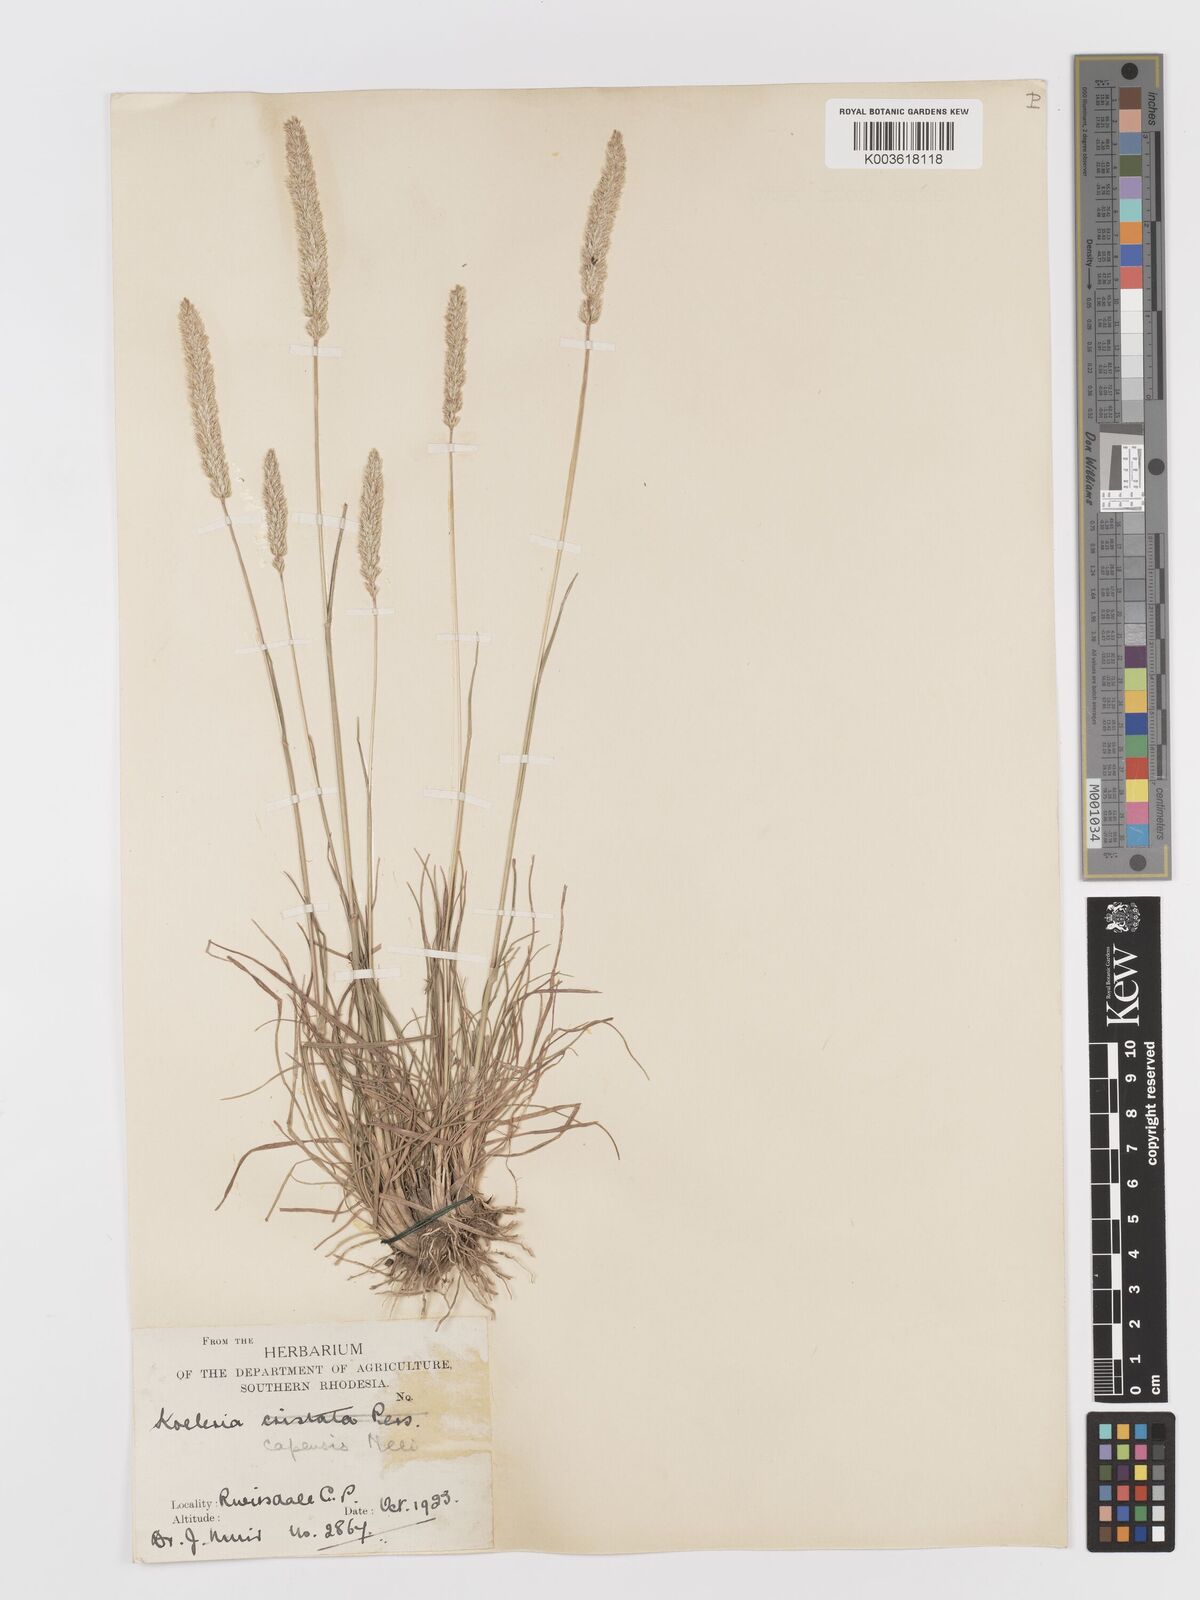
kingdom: Plantae
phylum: Tracheophyta
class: Liliopsida
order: Poales
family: Poaceae
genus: Koeleria
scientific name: Koeleria capensis
